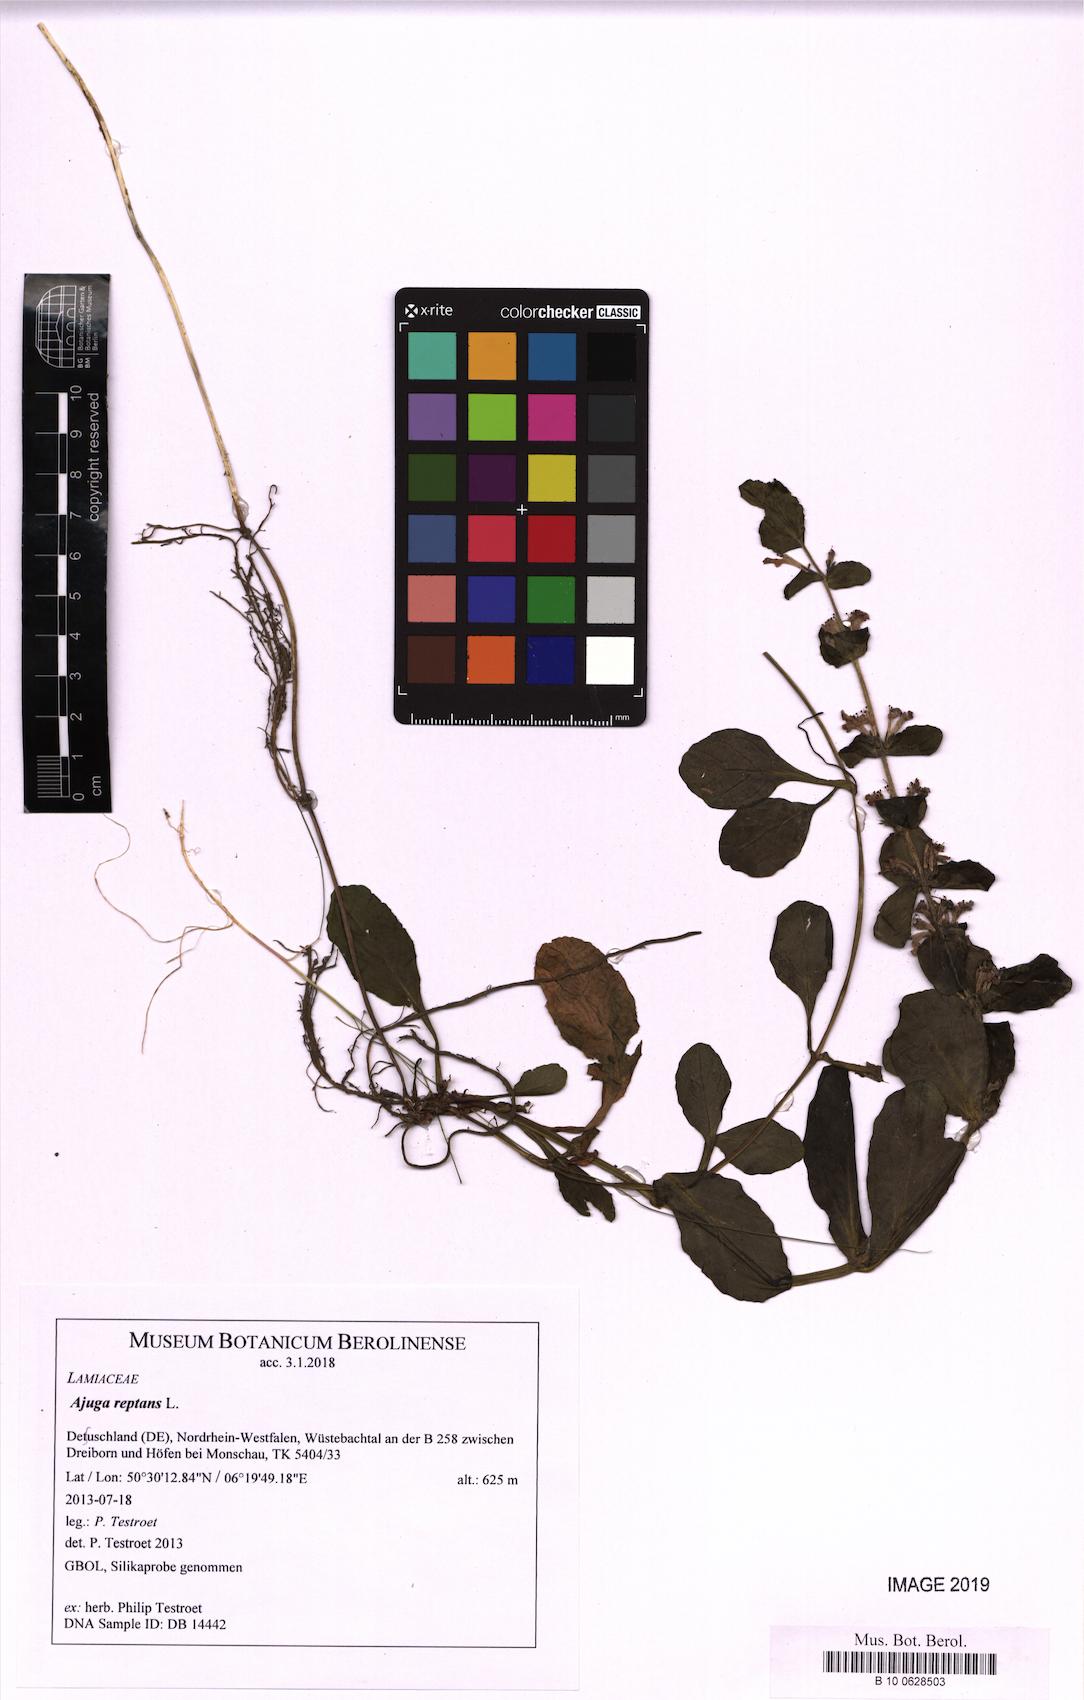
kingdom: Plantae
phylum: Tracheophyta
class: Magnoliopsida
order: Lamiales
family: Lamiaceae
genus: Ajuga
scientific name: Ajuga reptans
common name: Bugle
